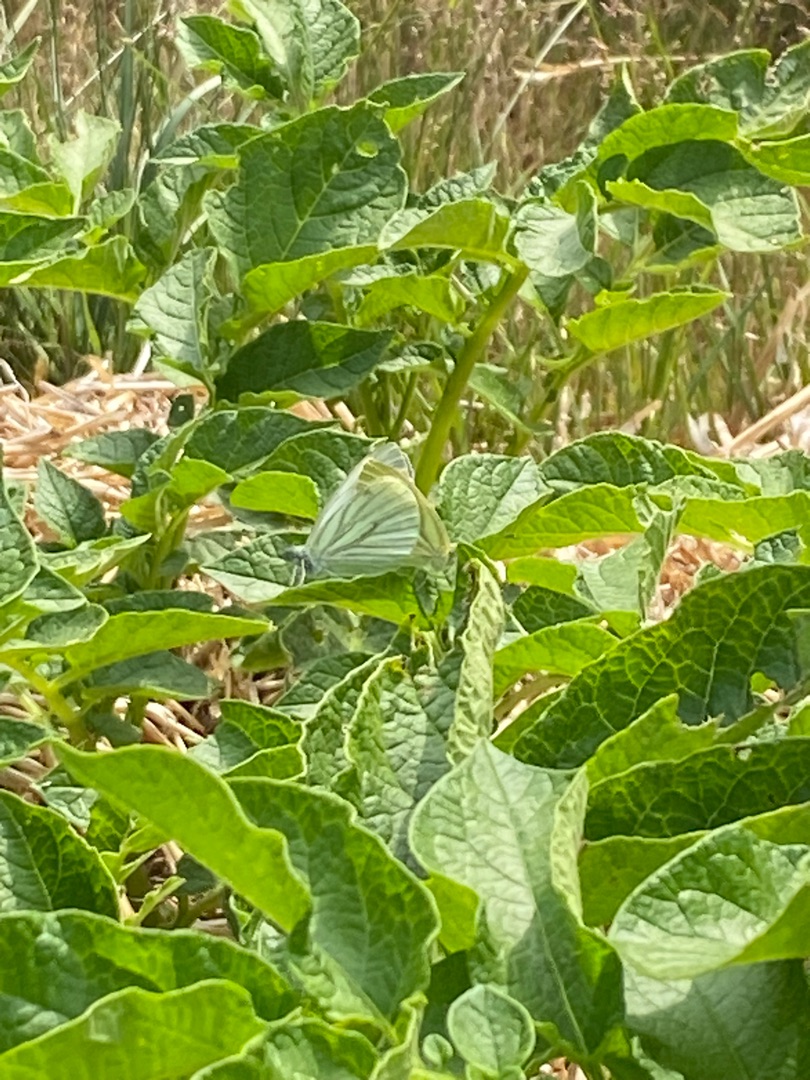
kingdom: Animalia
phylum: Arthropoda
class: Insecta
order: Lepidoptera
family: Pieridae
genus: Pieris
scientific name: Pieris napi
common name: Grønåret kålsommerfugl
